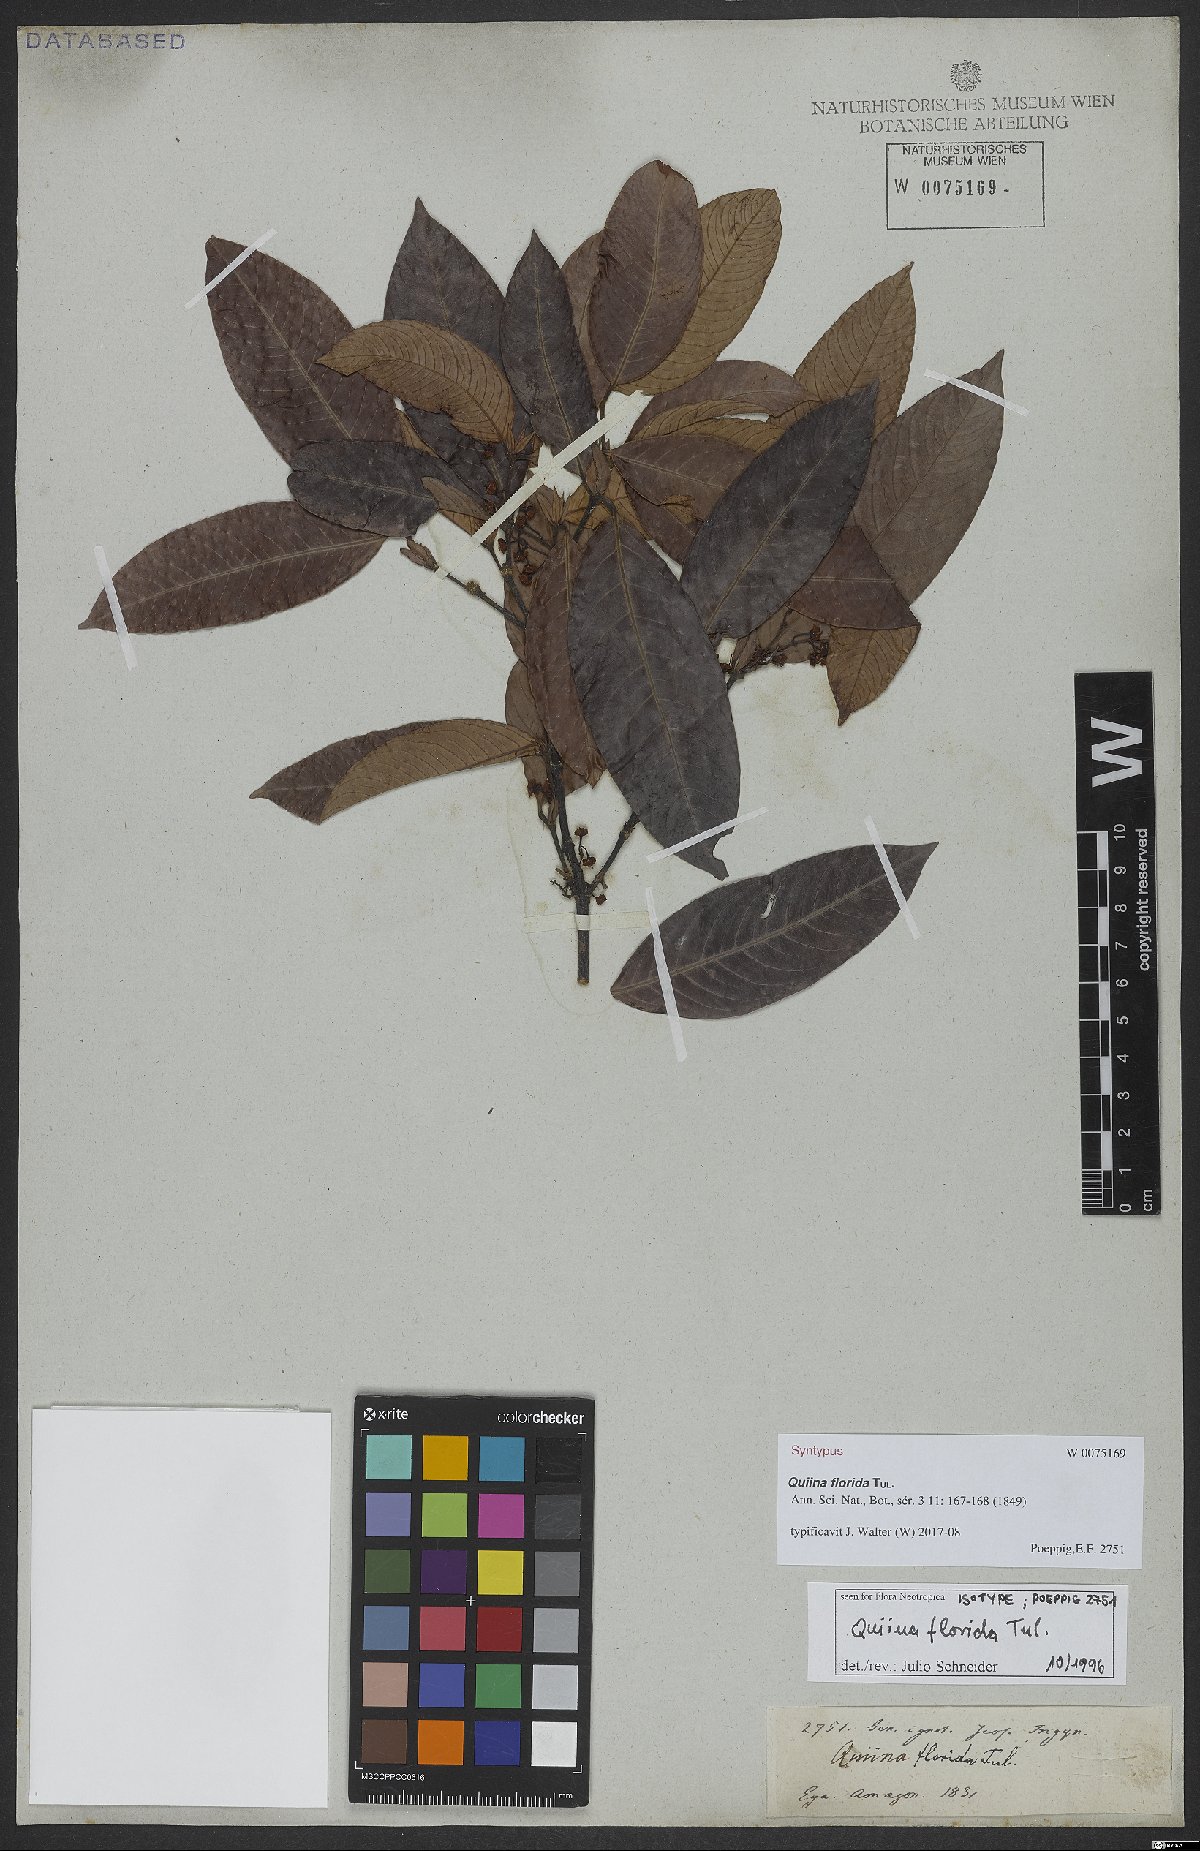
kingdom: Plantae
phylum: Tracheophyta
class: Magnoliopsida
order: Malpighiales
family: Quiinaceae
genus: Quiina
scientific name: Quiina florida
